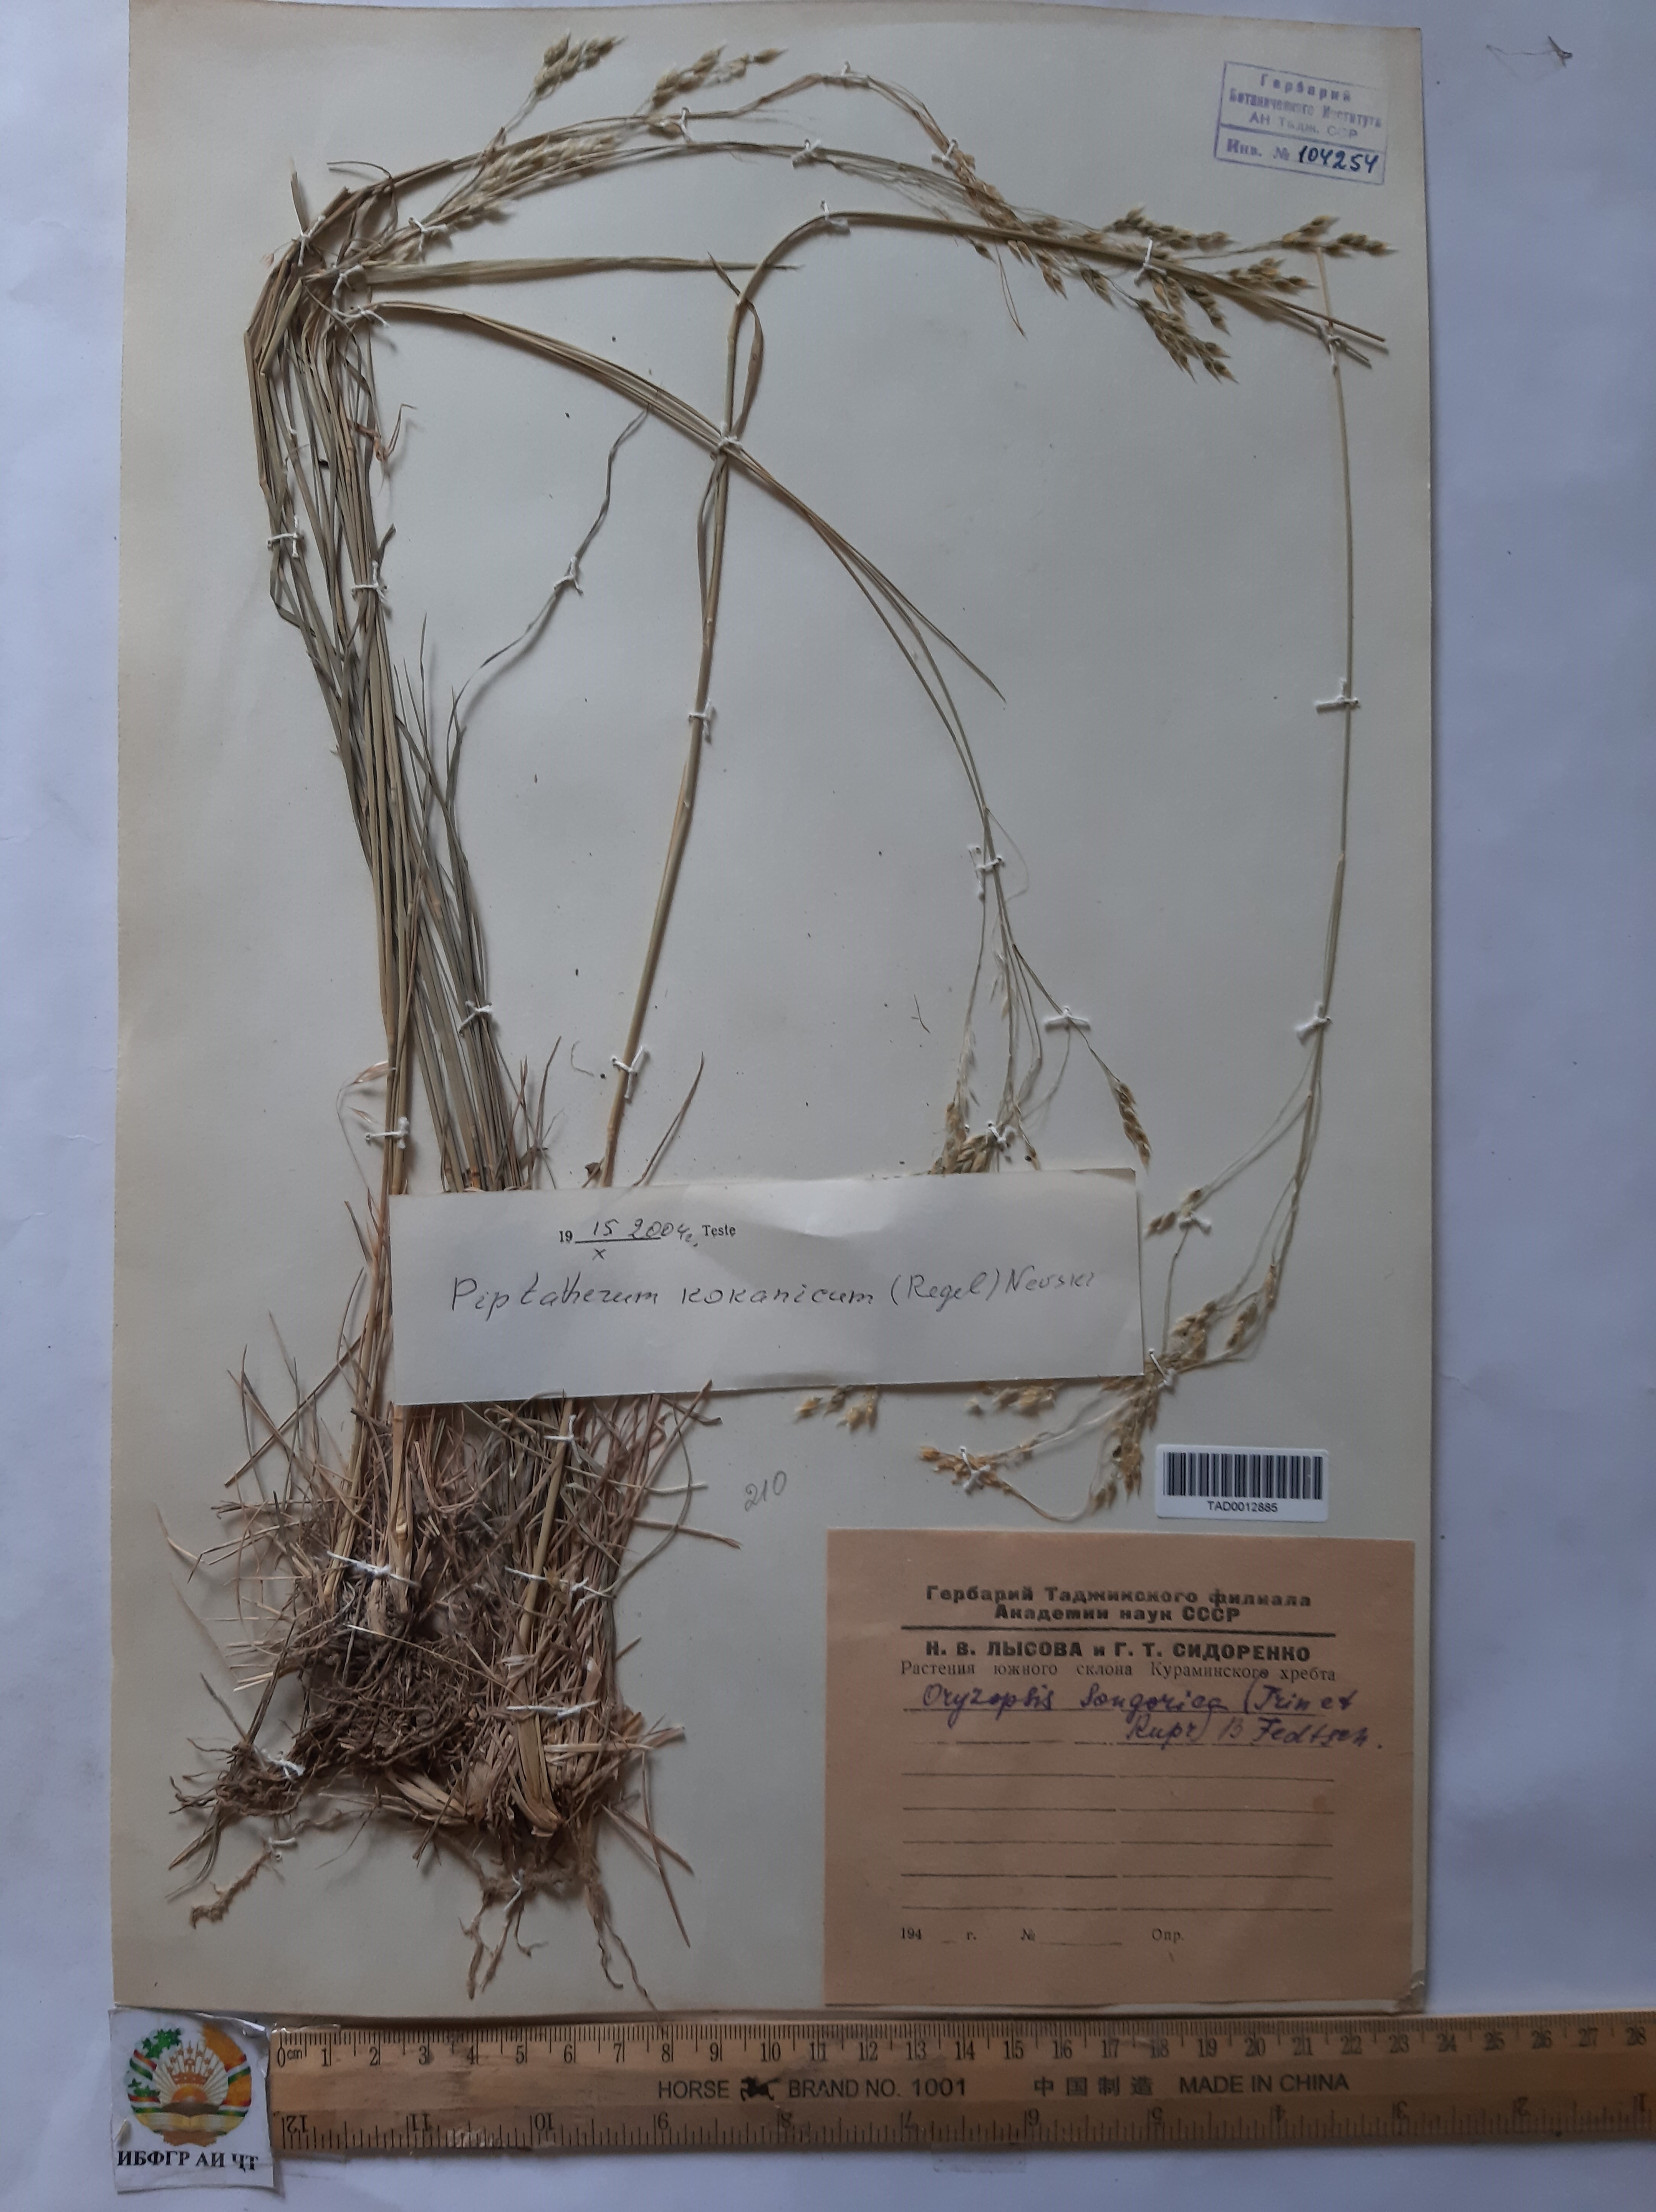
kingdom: Plantae
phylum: Tracheophyta
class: Liliopsida
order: Poales
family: Poaceae
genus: Piptatherum
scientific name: Piptatherum songaricum
